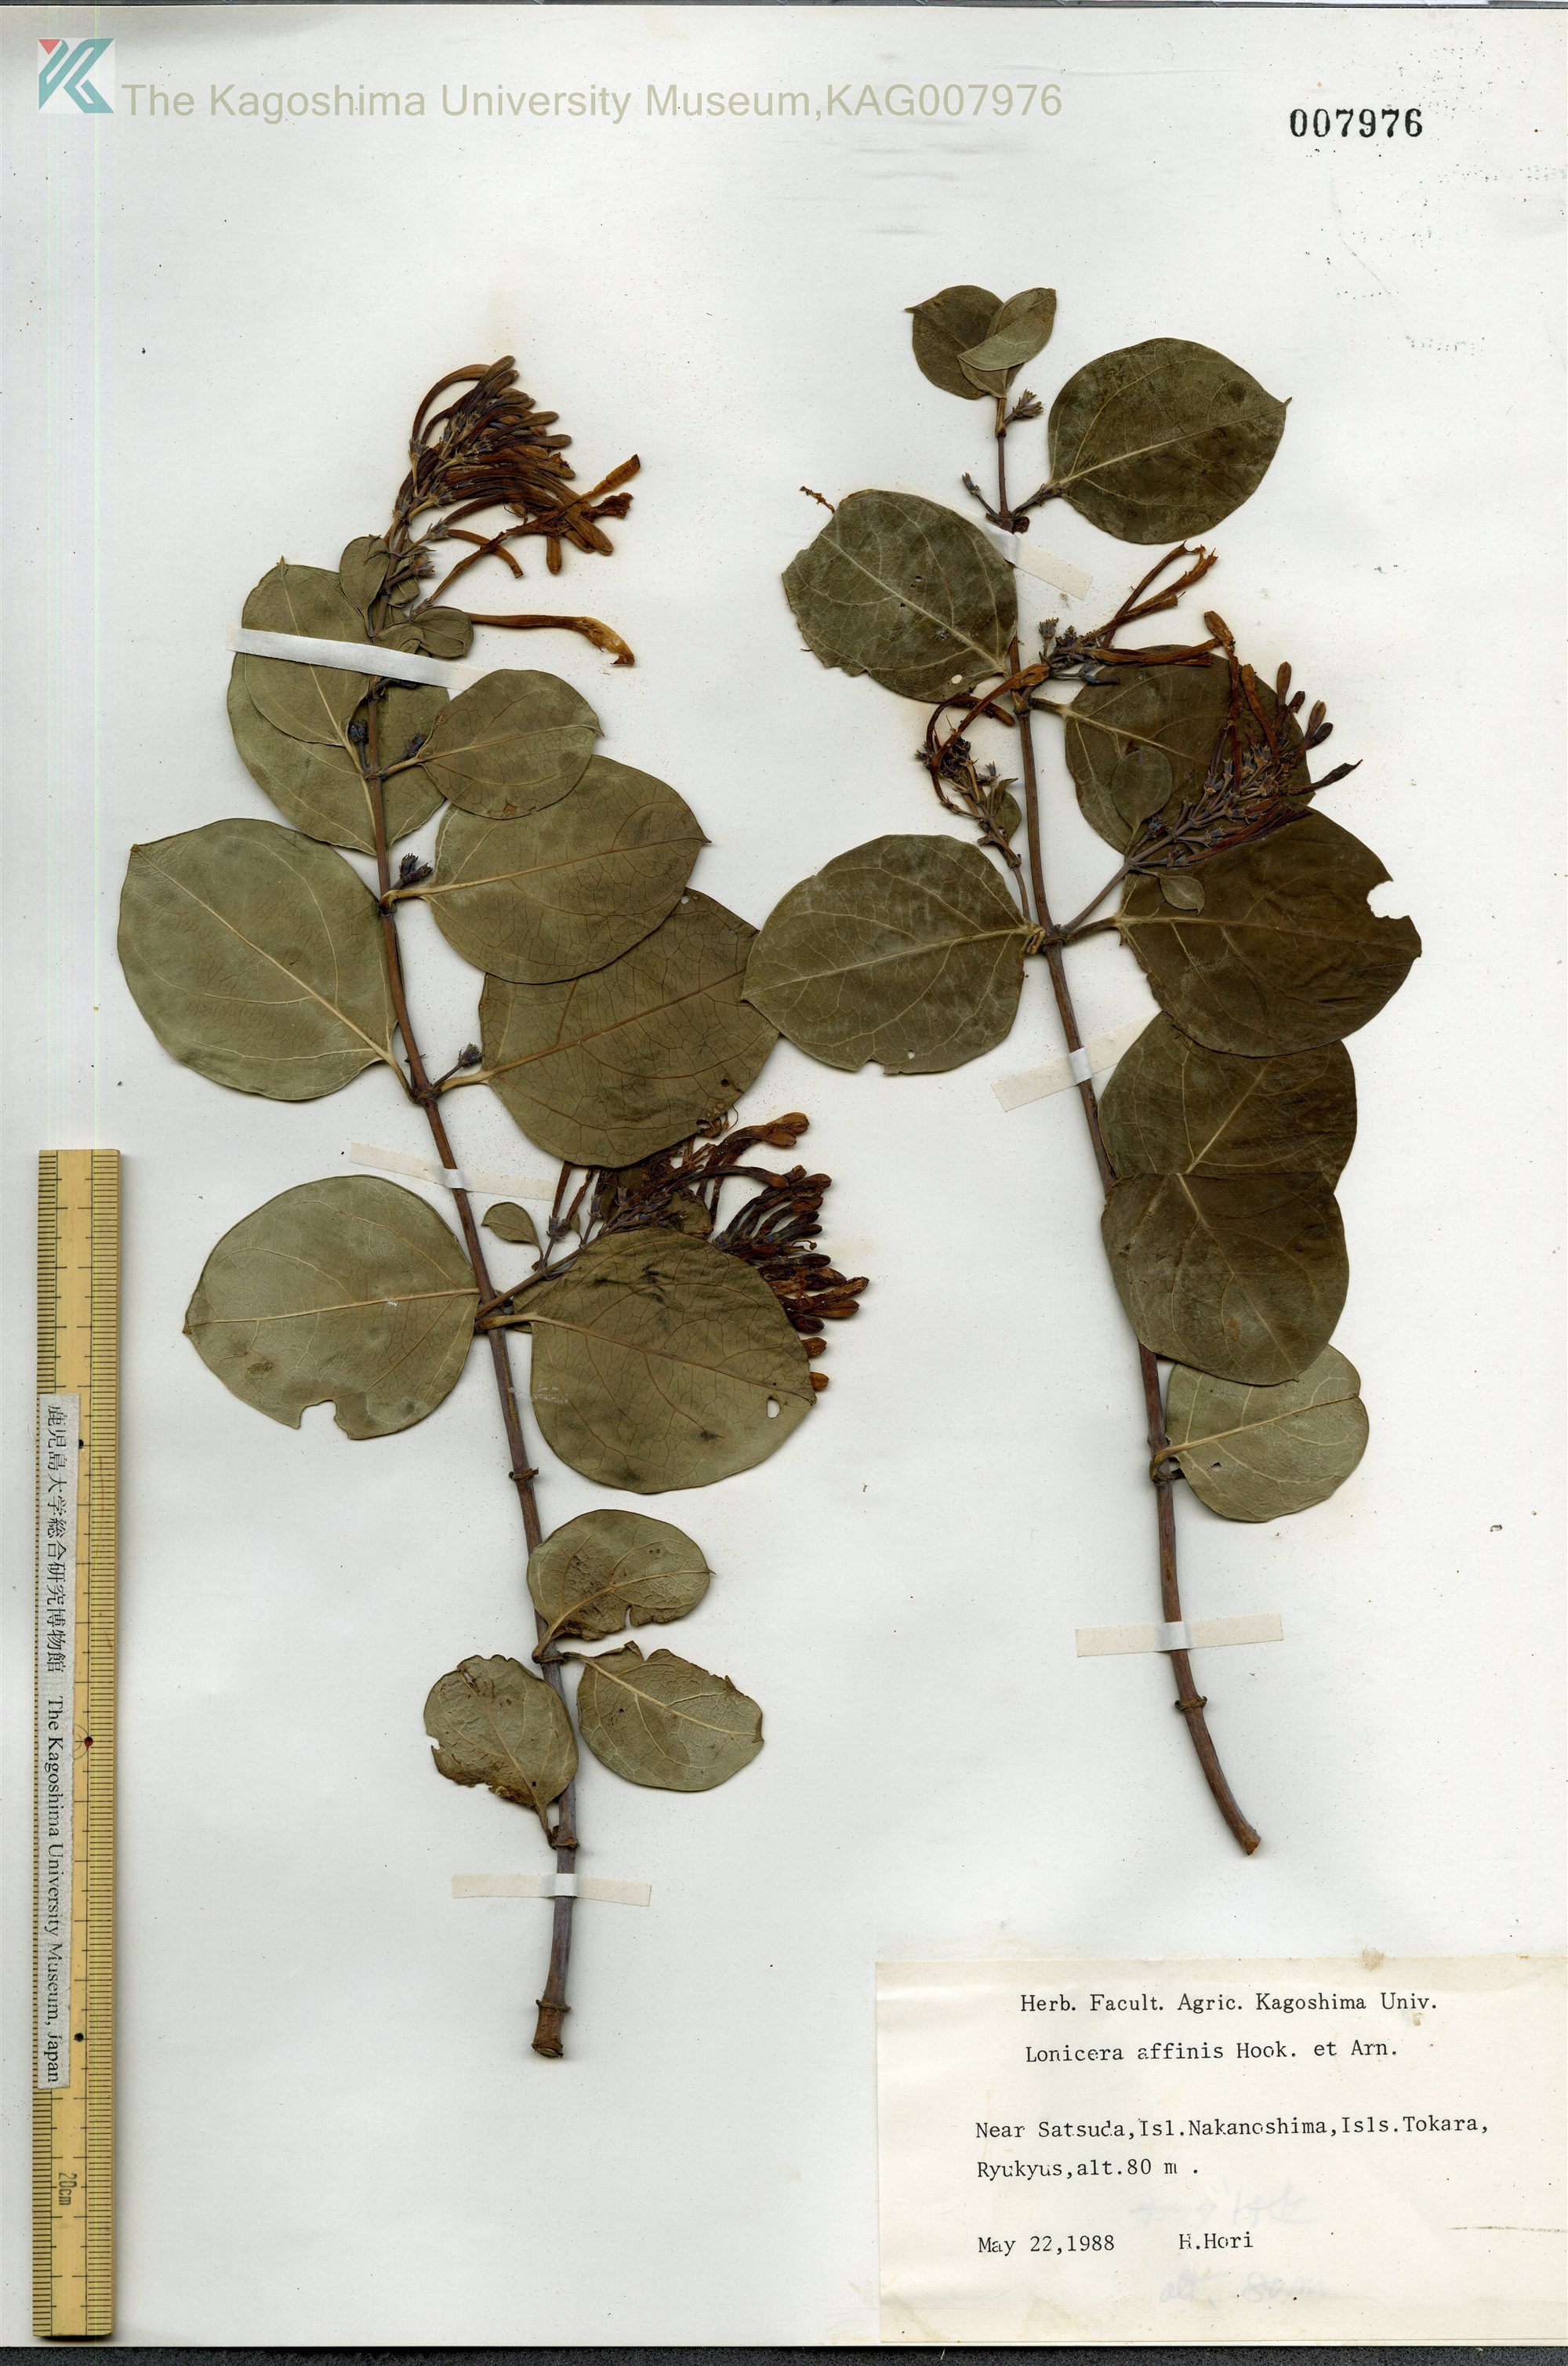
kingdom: Plantae
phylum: Tracheophyta
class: Magnoliopsida
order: Dipsacales
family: Caprifoliaceae
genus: Lonicera
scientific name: Lonicera affinis
